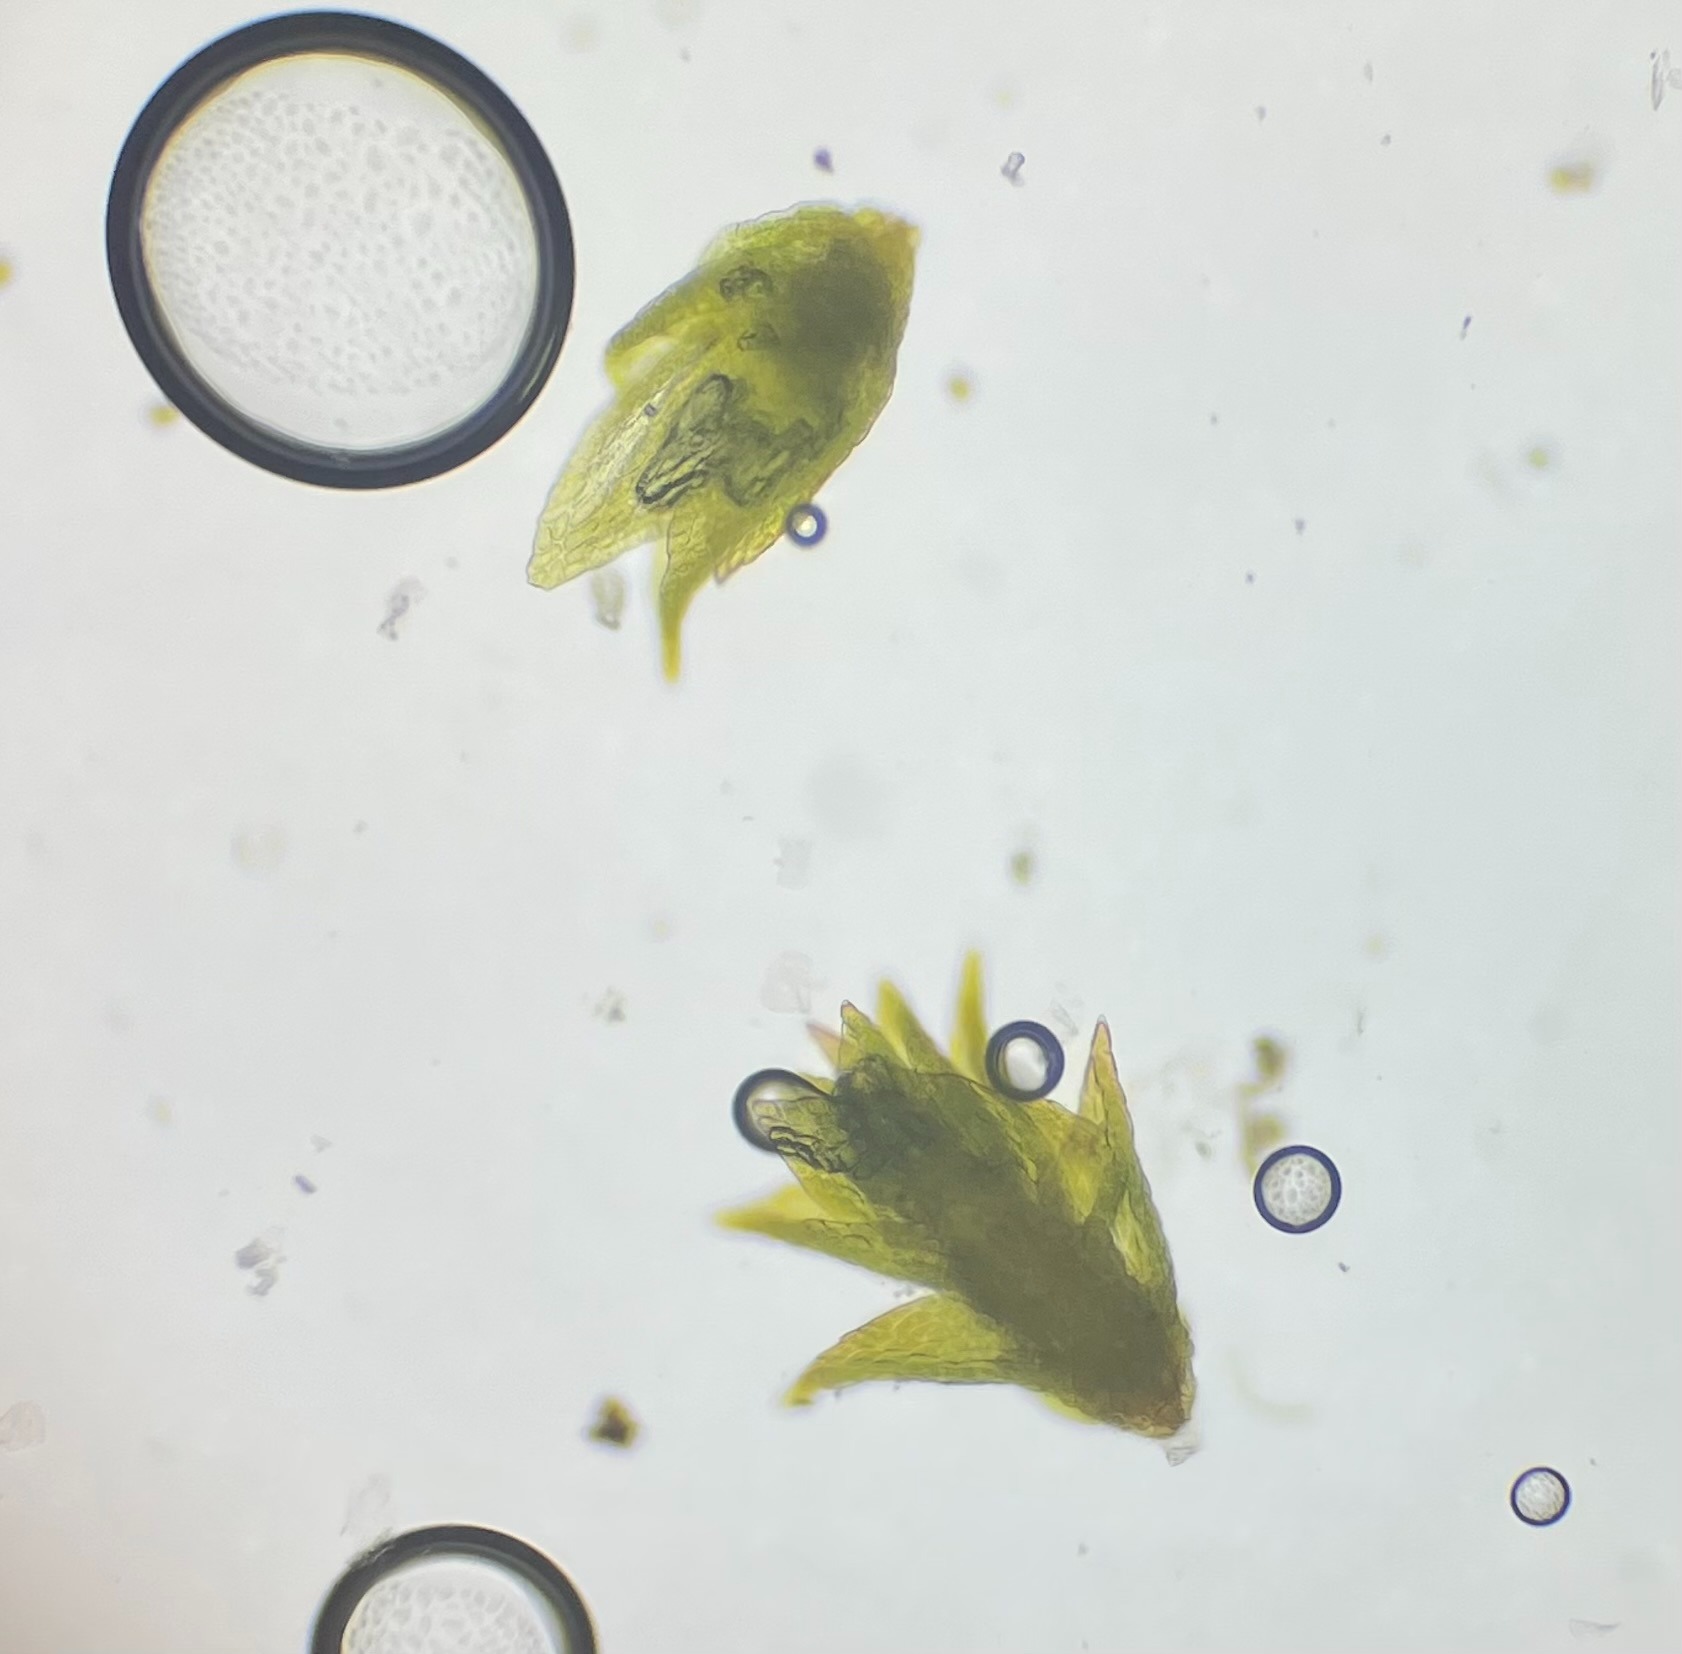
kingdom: Plantae
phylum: Bryophyta
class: Bryopsida
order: Hypnales
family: Pylaisiadelphaceae
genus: Platygyrium
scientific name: Platygyrium repens
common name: Mørk yngleknop
